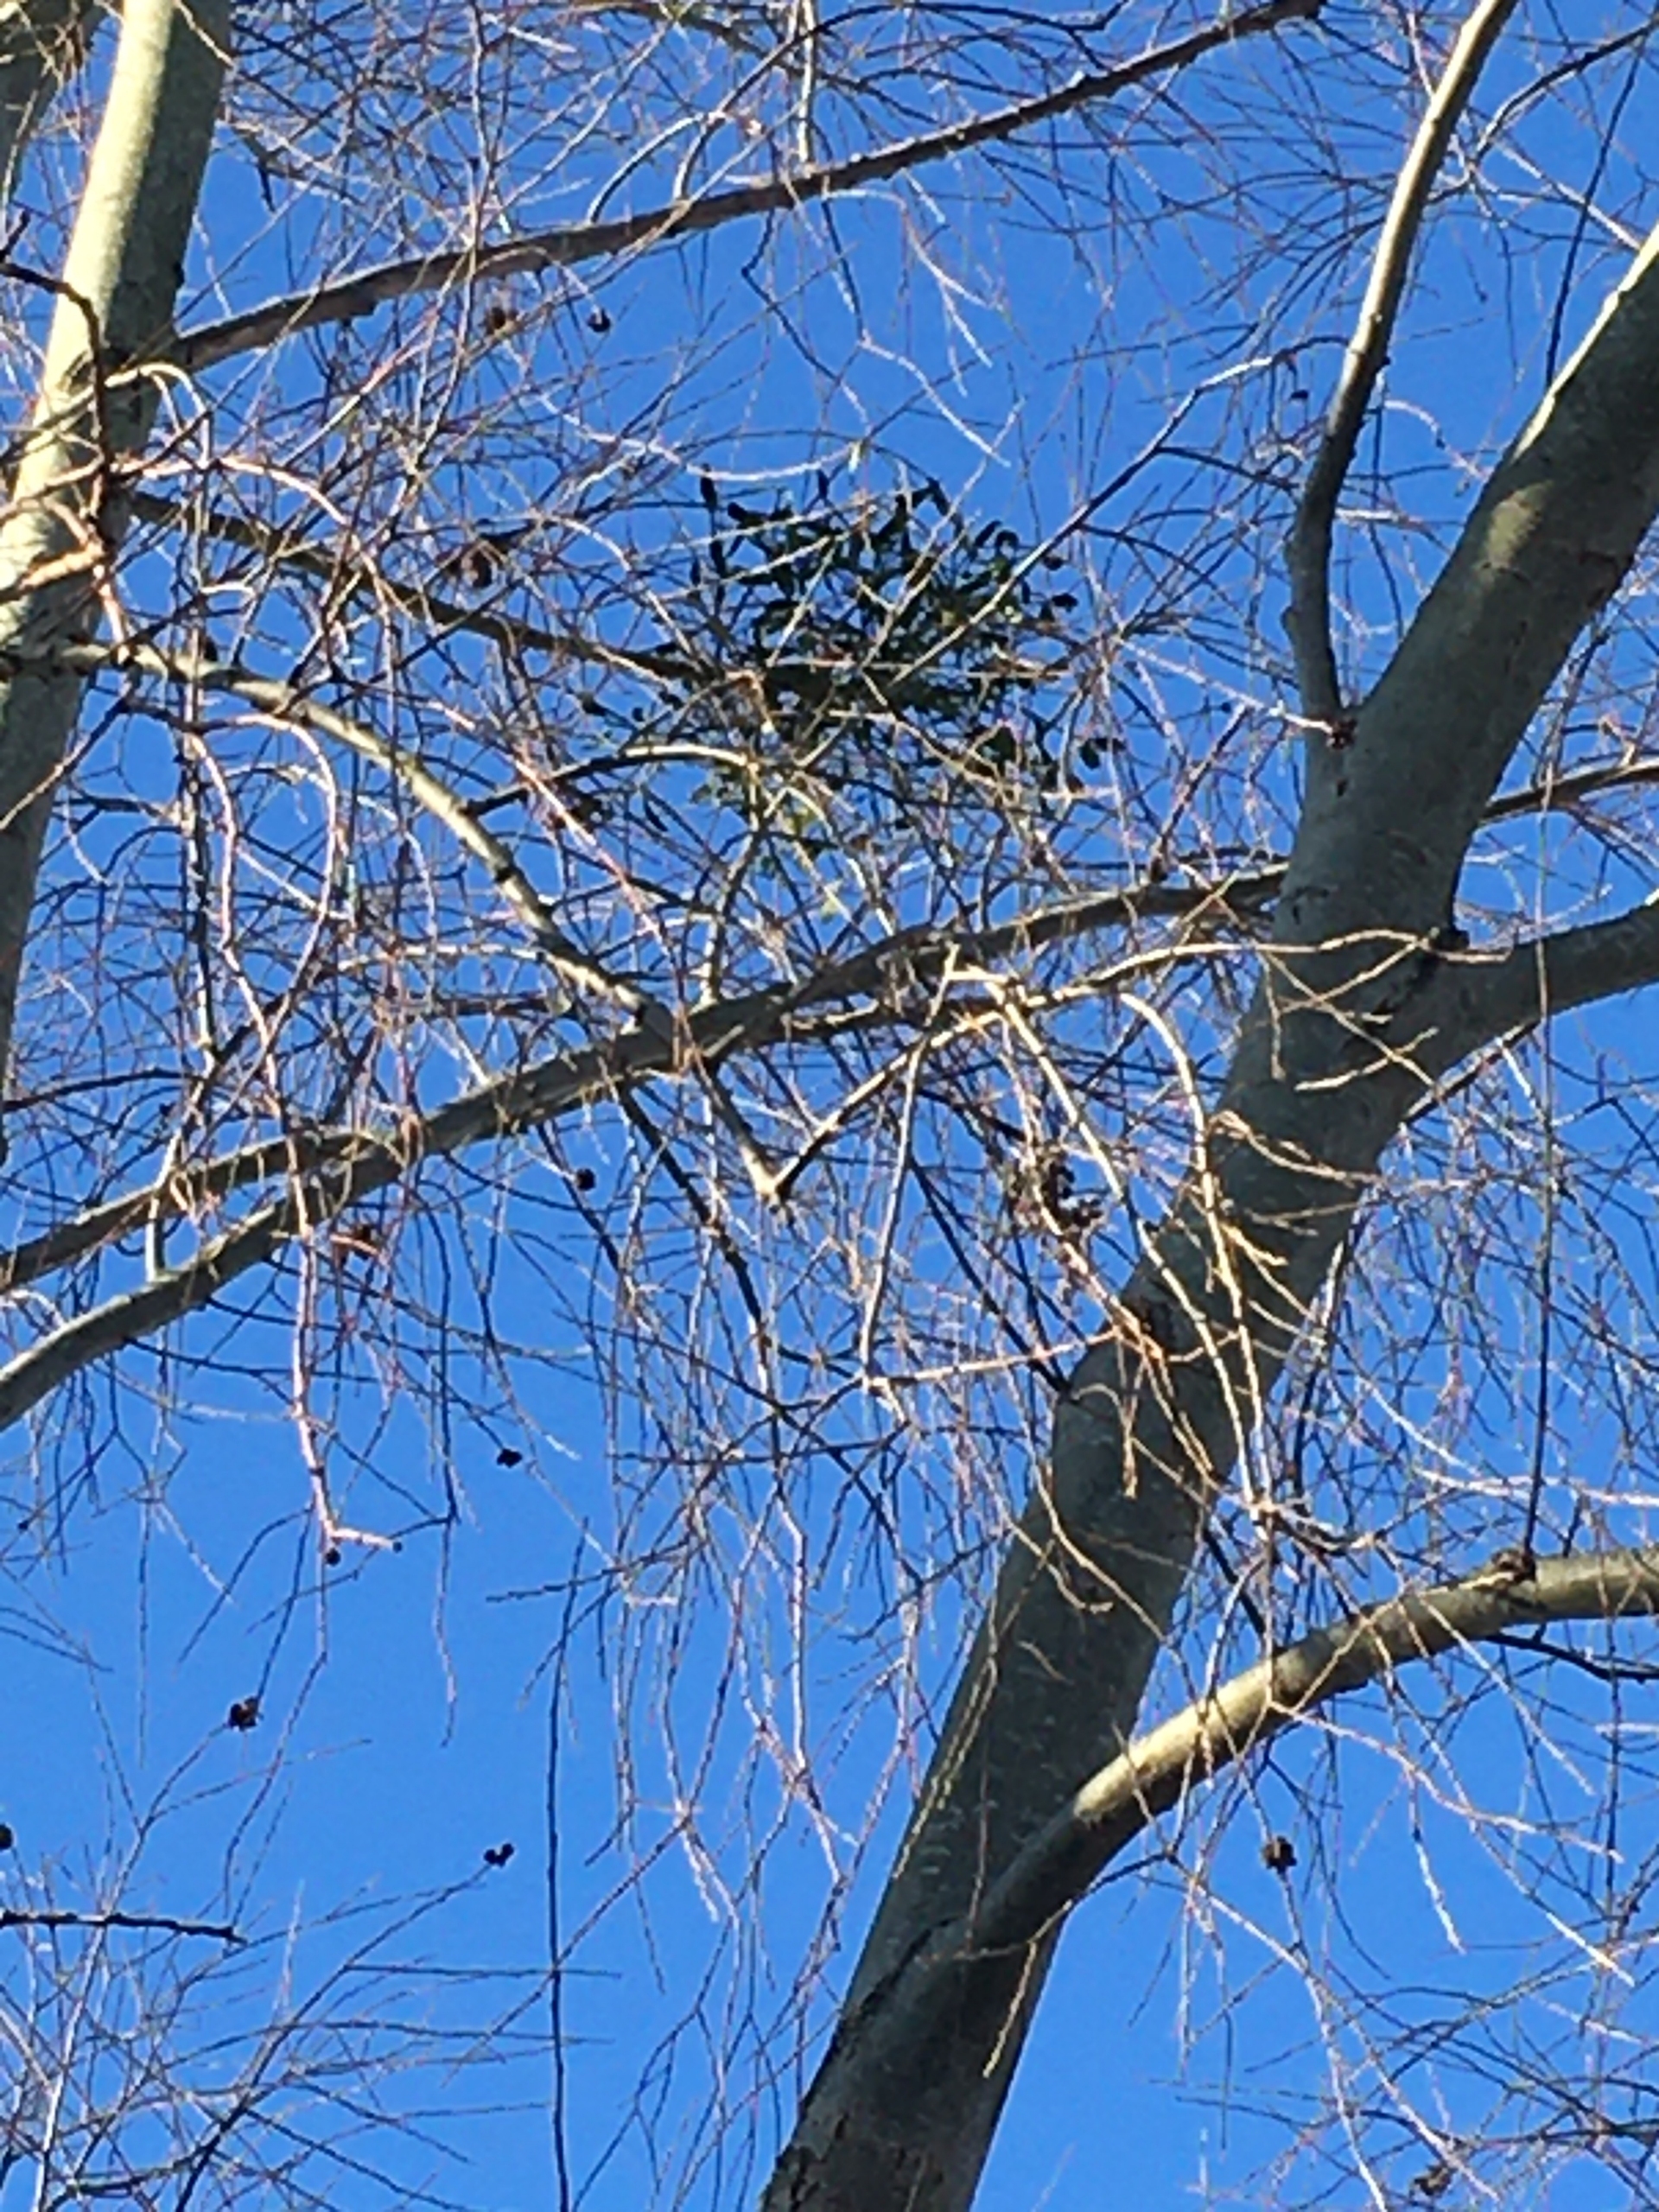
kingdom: Plantae
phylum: Tracheophyta
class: Magnoliopsida
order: Santalales
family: Viscaceae
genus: Viscum
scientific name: Viscum album
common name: Mistelten
